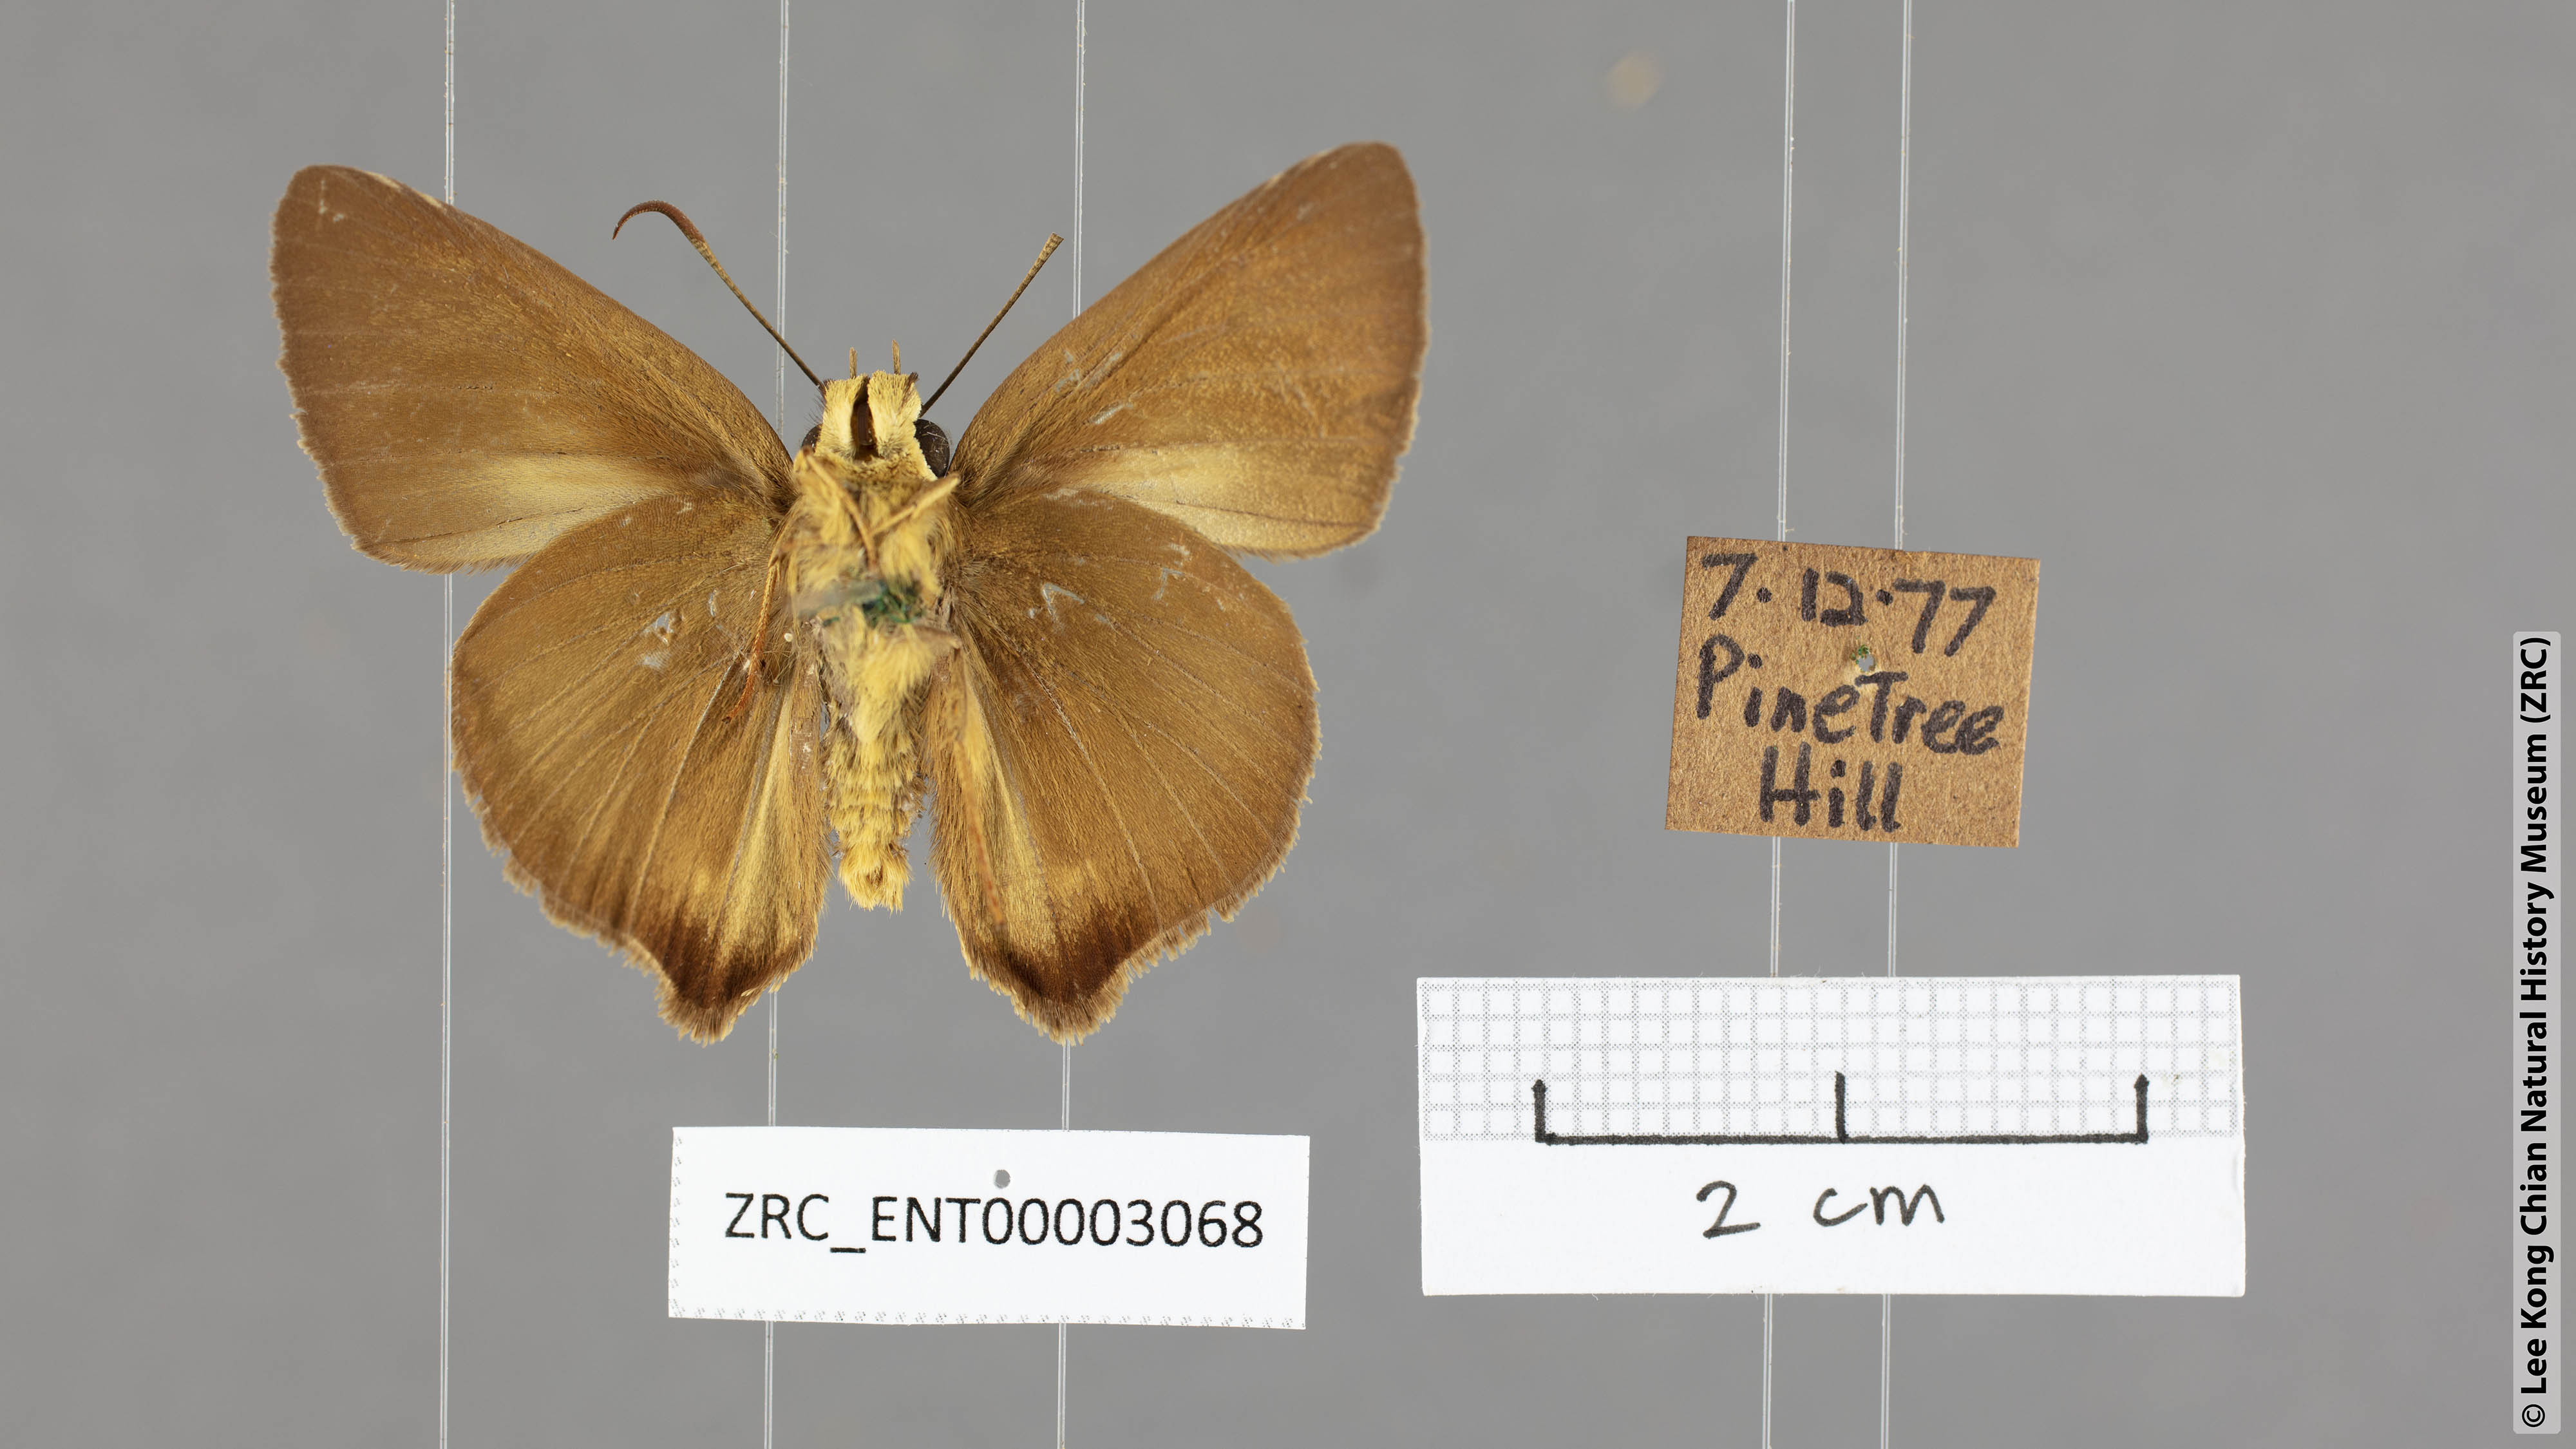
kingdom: Animalia
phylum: Arthropoda
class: Insecta
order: Lepidoptera
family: Hesperiidae
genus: Hasora
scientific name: Hasora mus
